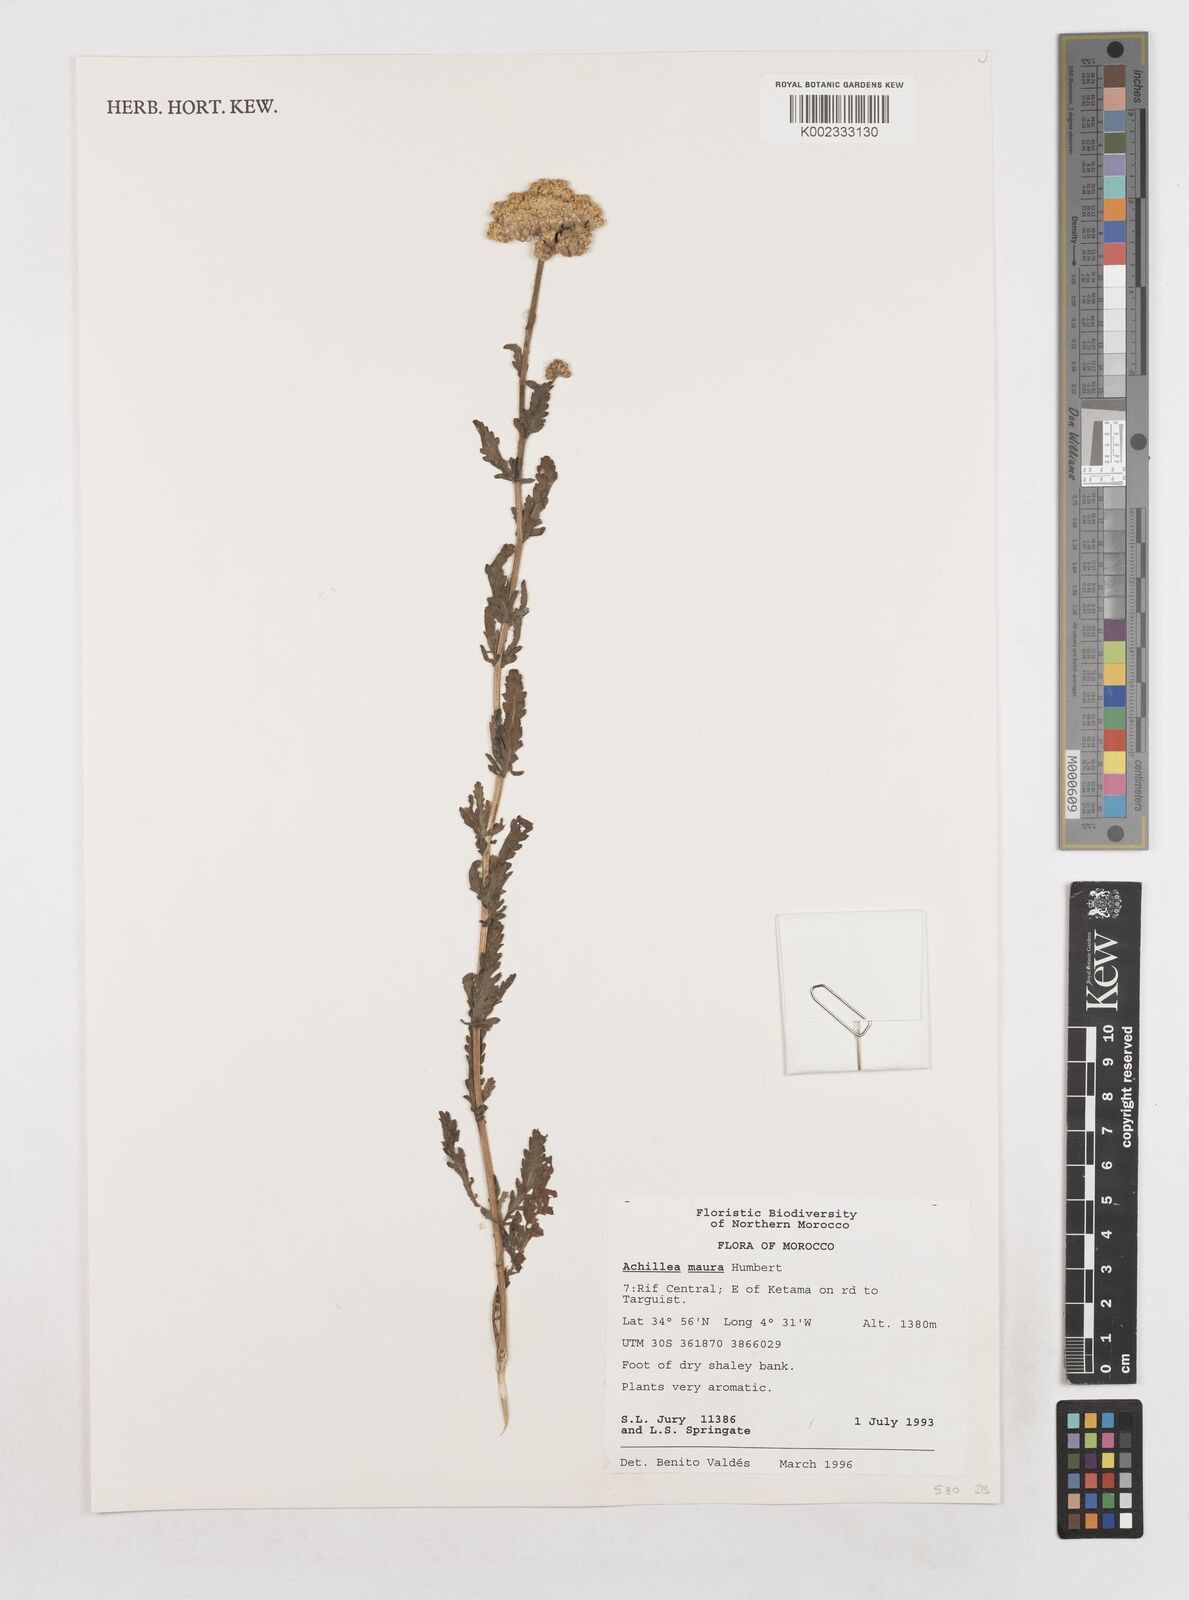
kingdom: Plantae
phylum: Tracheophyta
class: Magnoliopsida
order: Asterales
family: Asteraceae
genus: Achillea
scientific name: Achillea maura
